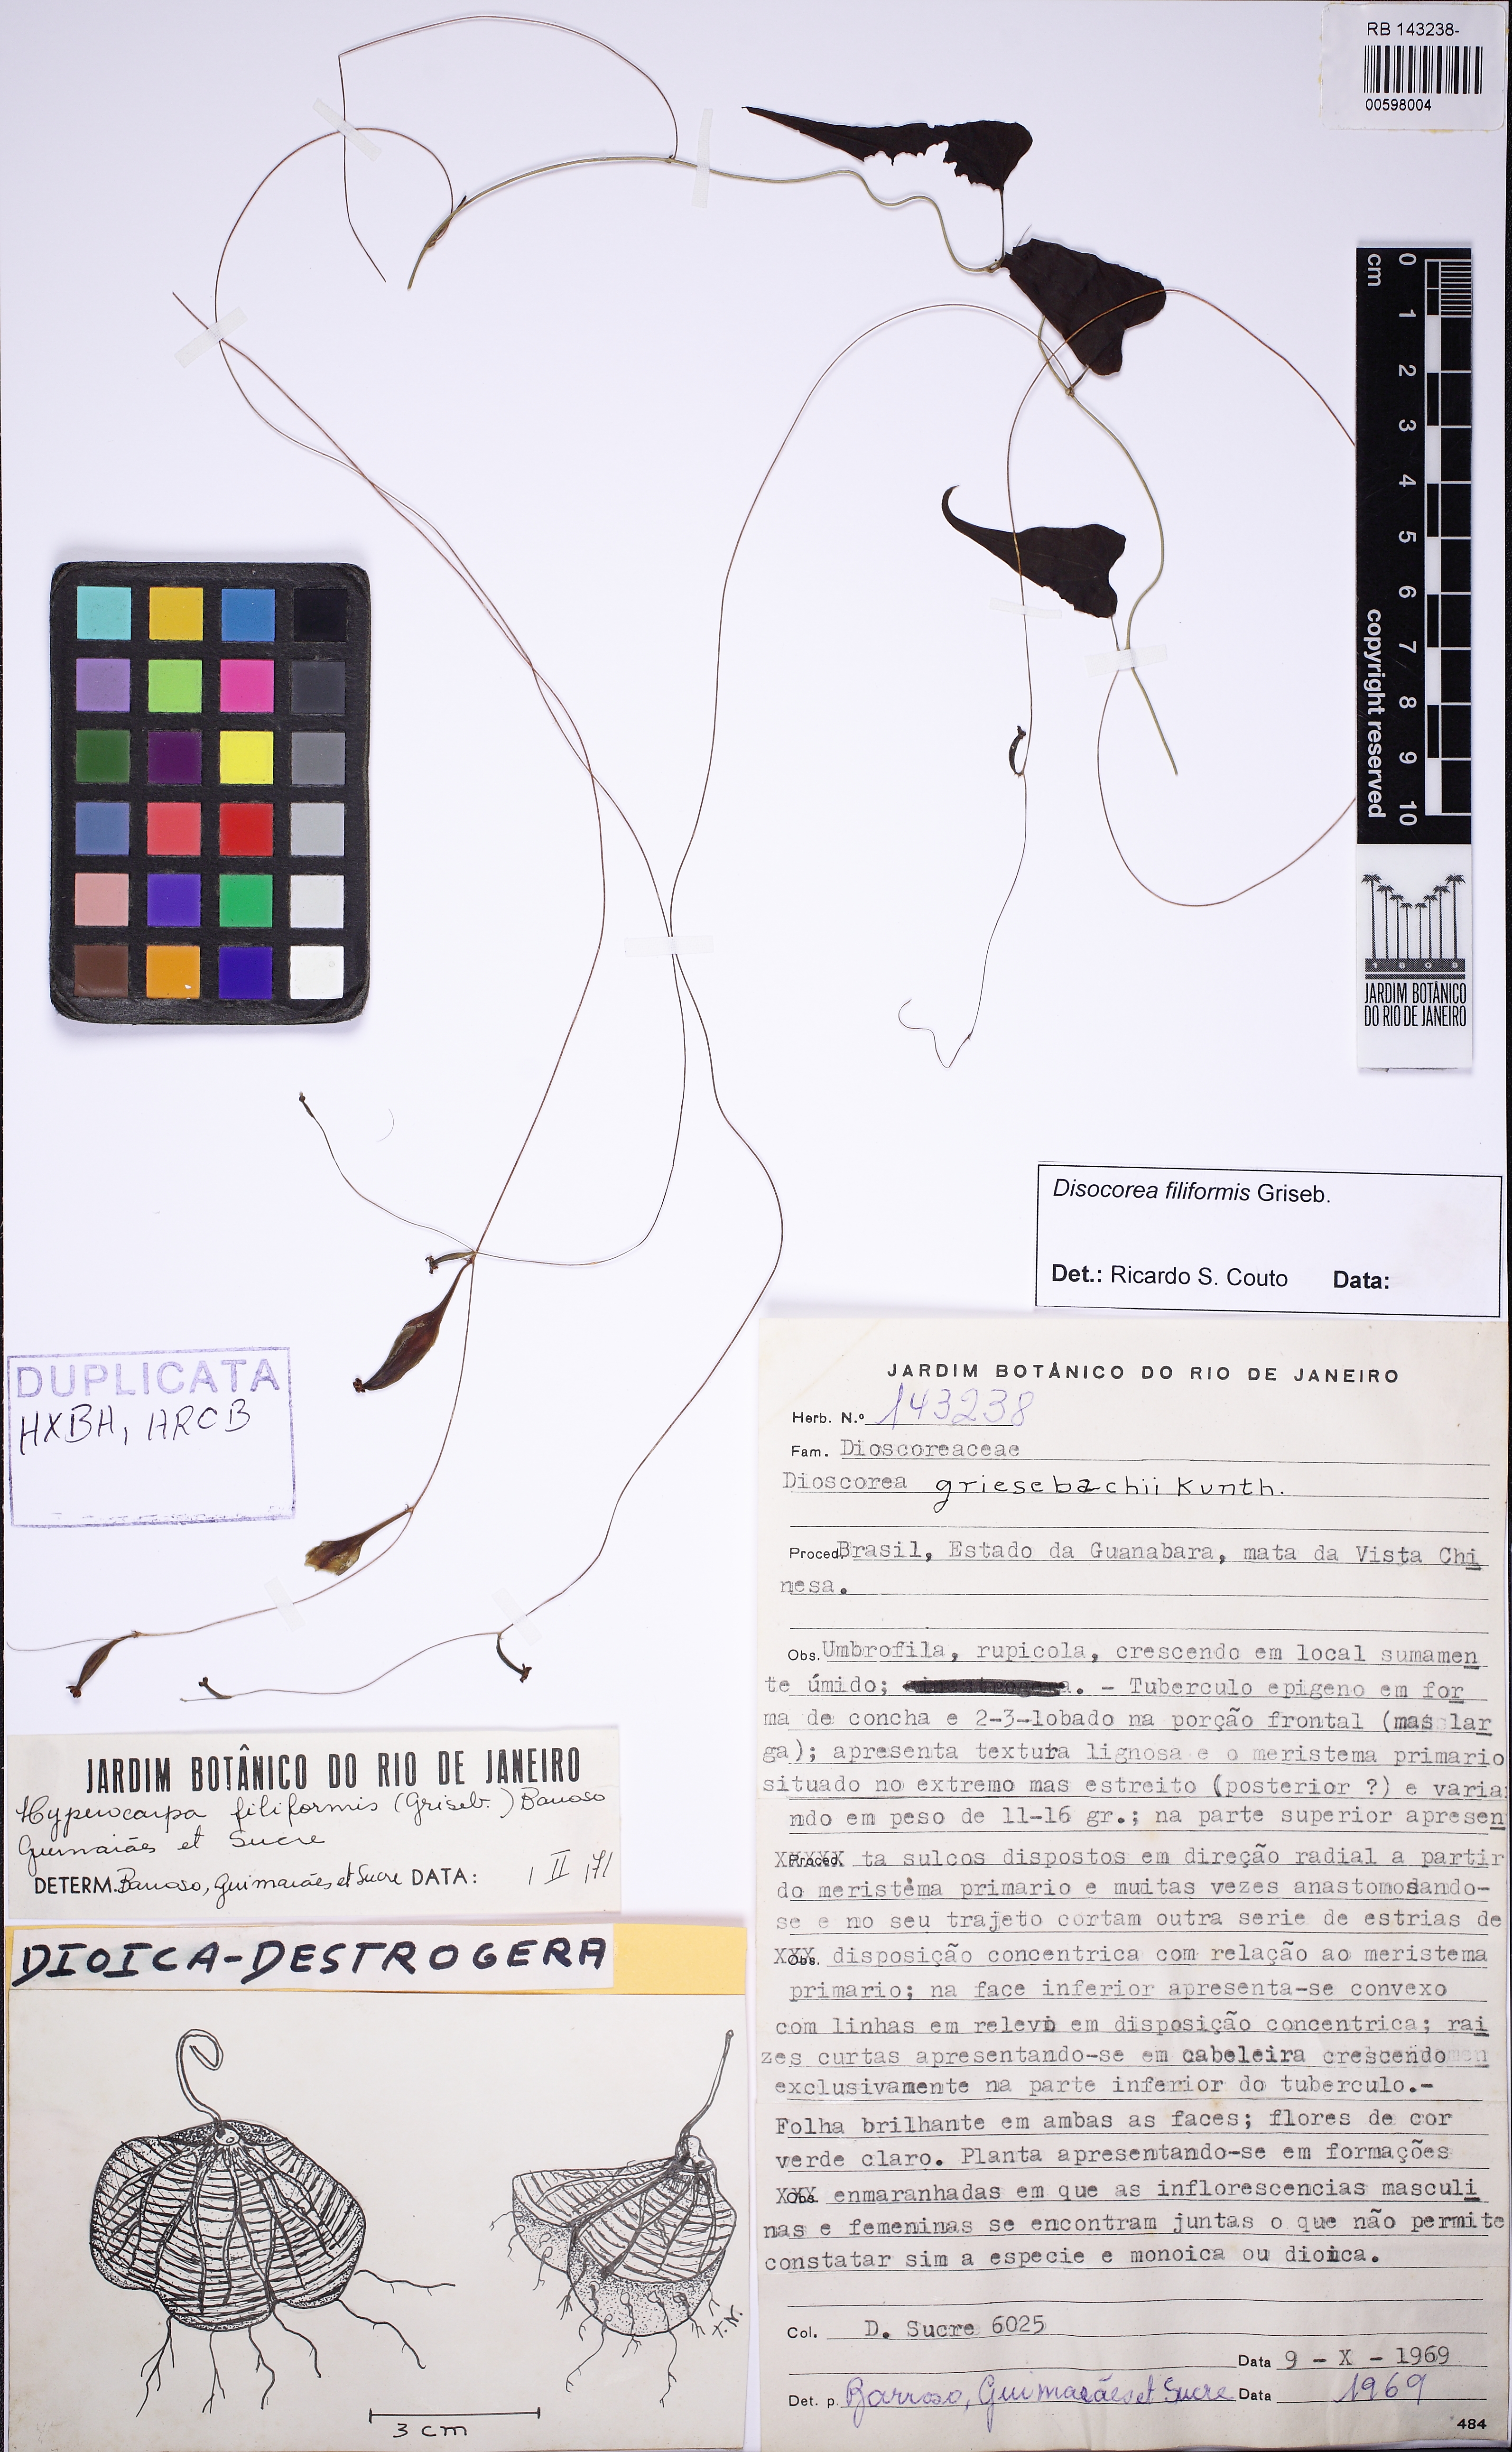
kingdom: Plantae
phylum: Tracheophyta
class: Liliopsida
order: Dioscoreales
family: Dioscoreaceae
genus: Dioscorea
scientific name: Dioscorea grisebachii
